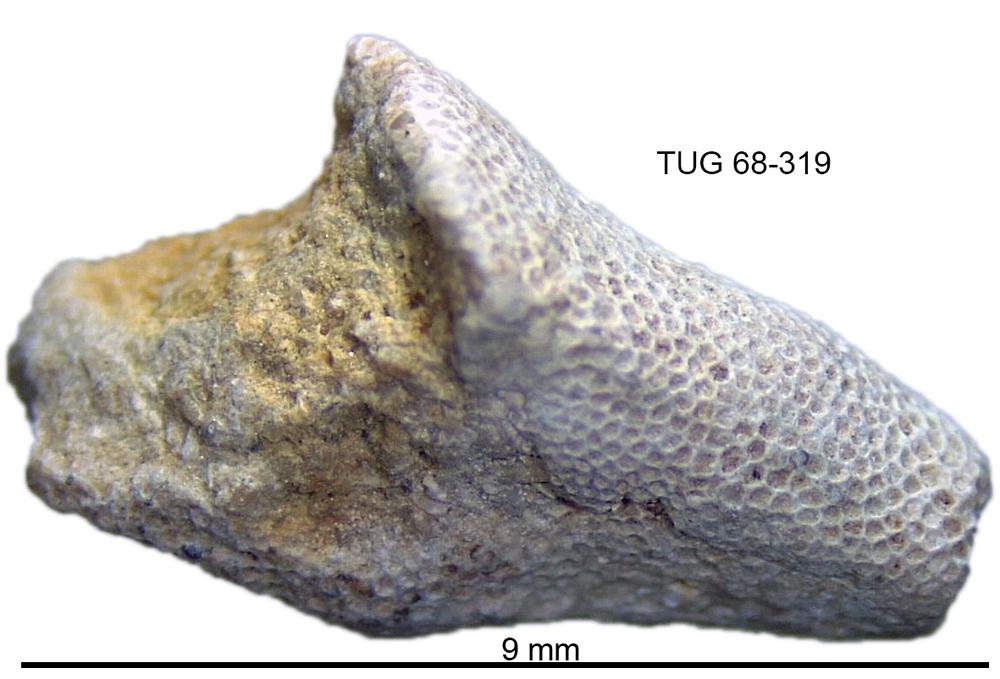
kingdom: Animalia
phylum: Bryozoa
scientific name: Bryozoa
